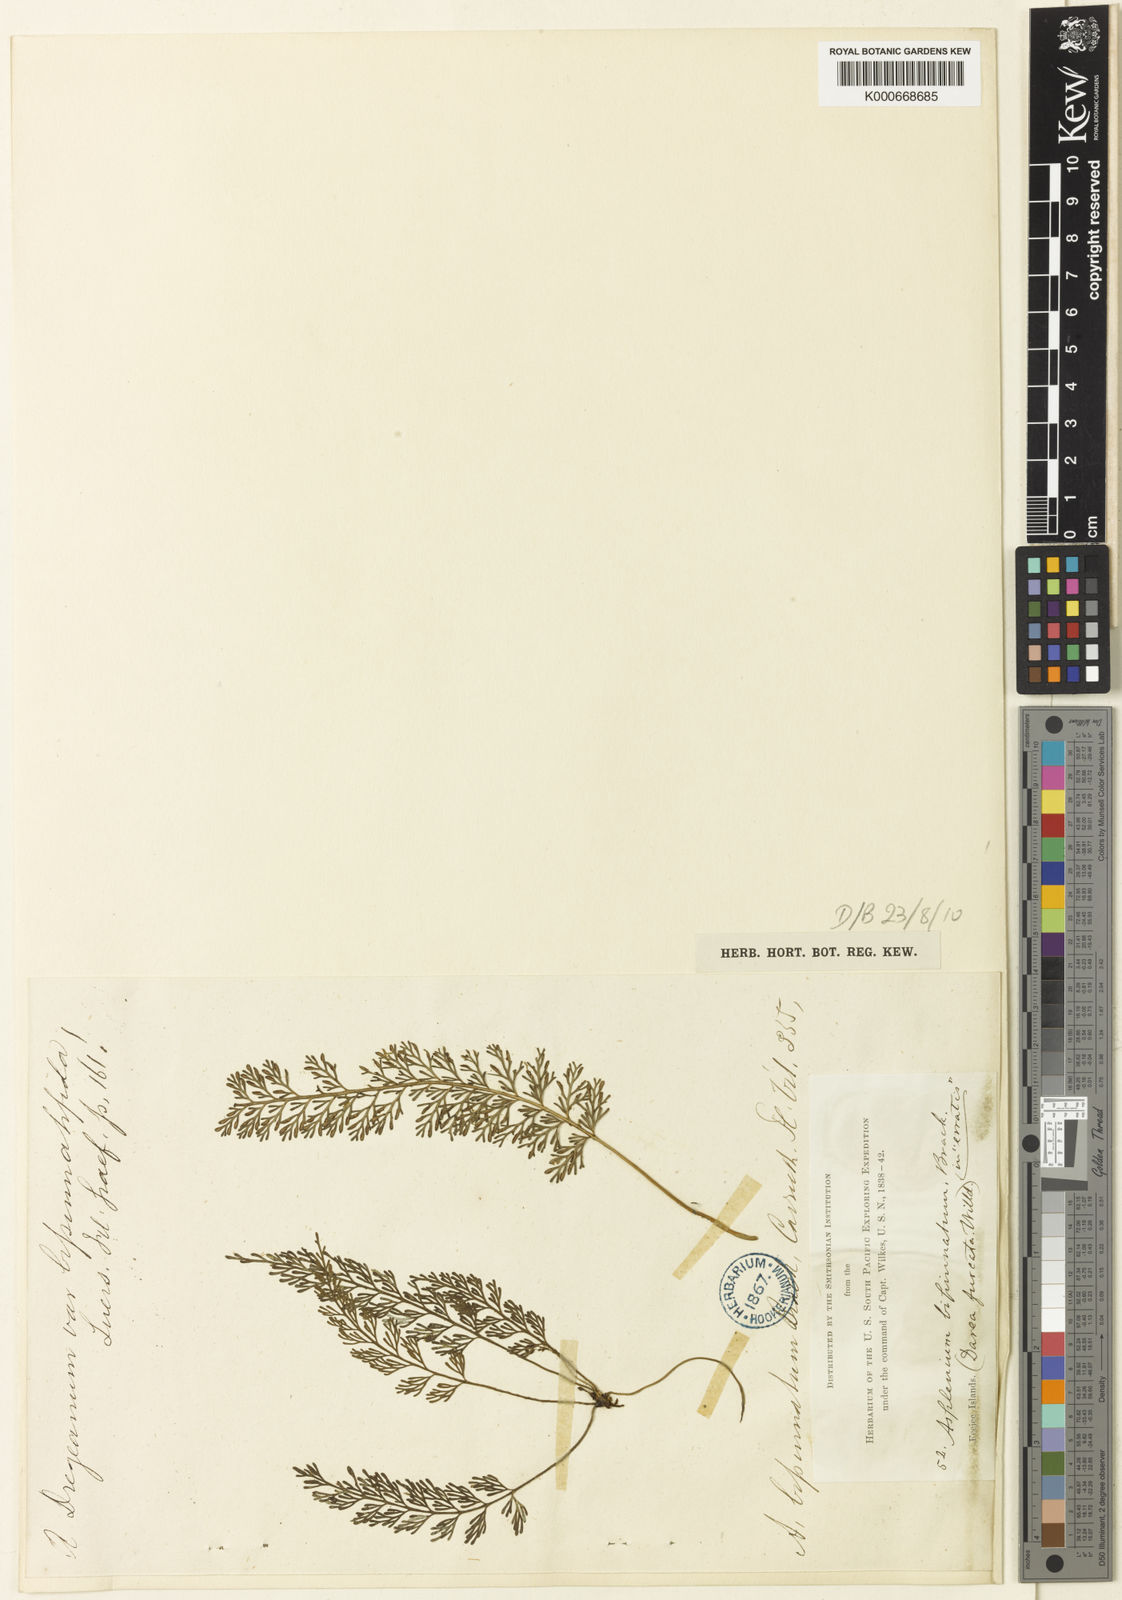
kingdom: Plantae
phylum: Tracheophyta
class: Polypodiopsida
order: Polypodiales
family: Aspleniaceae
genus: Asplenium
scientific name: Asplenium
